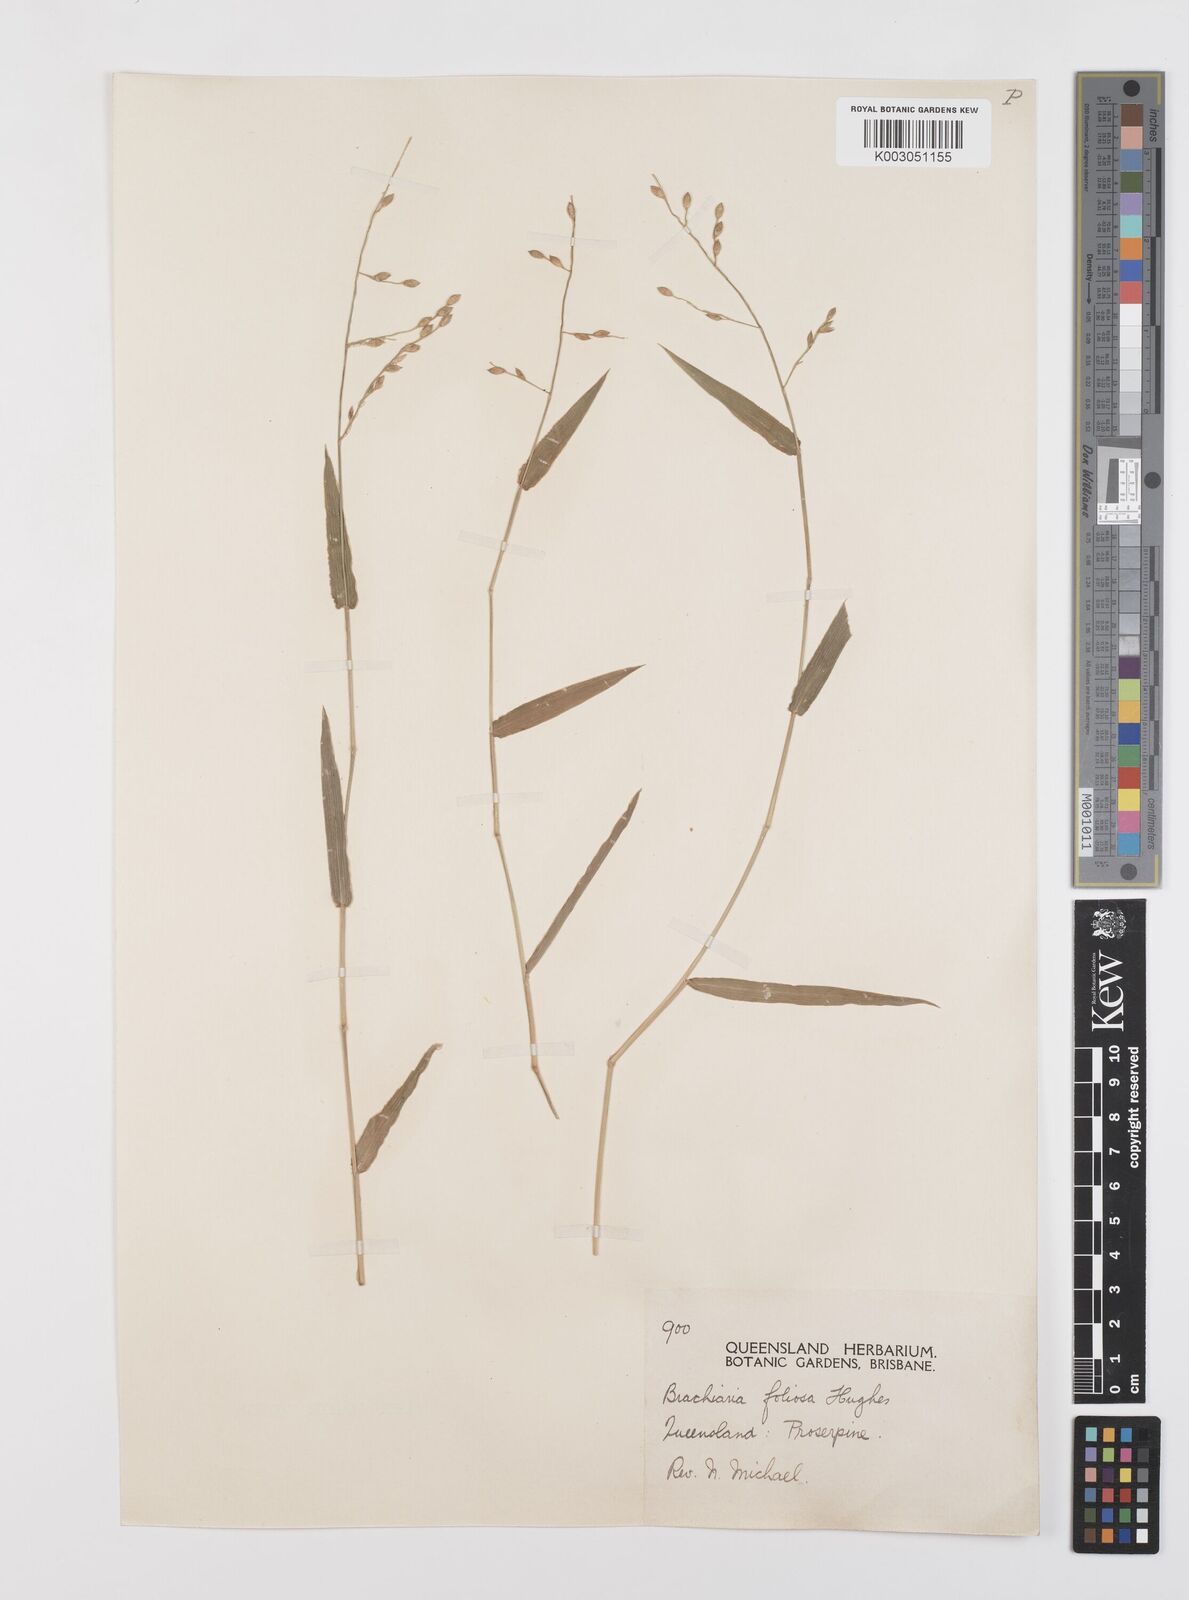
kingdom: Plantae
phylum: Tracheophyta
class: Liliopsida
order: Poales
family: Poaceae
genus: Urochloa
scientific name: Urochloa foliosa
